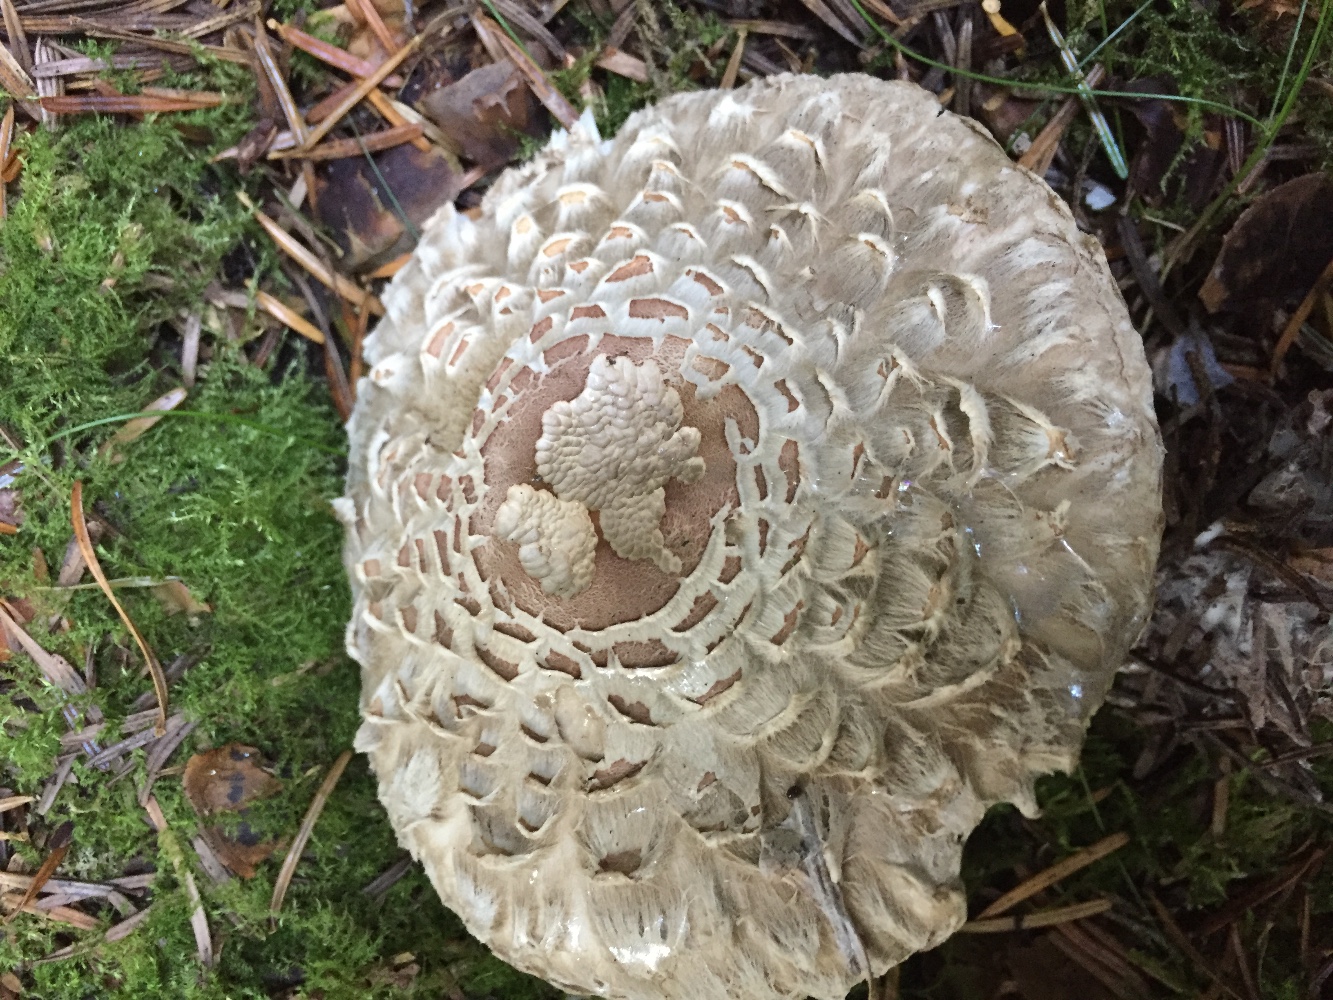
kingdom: Fungi
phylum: Basidiomycota
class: Agaricomycetes
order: Agaricales
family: Agaricaceae
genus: Chlorophyllum
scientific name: Chlorophyllum olivieri
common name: almindelig rabarberhat
